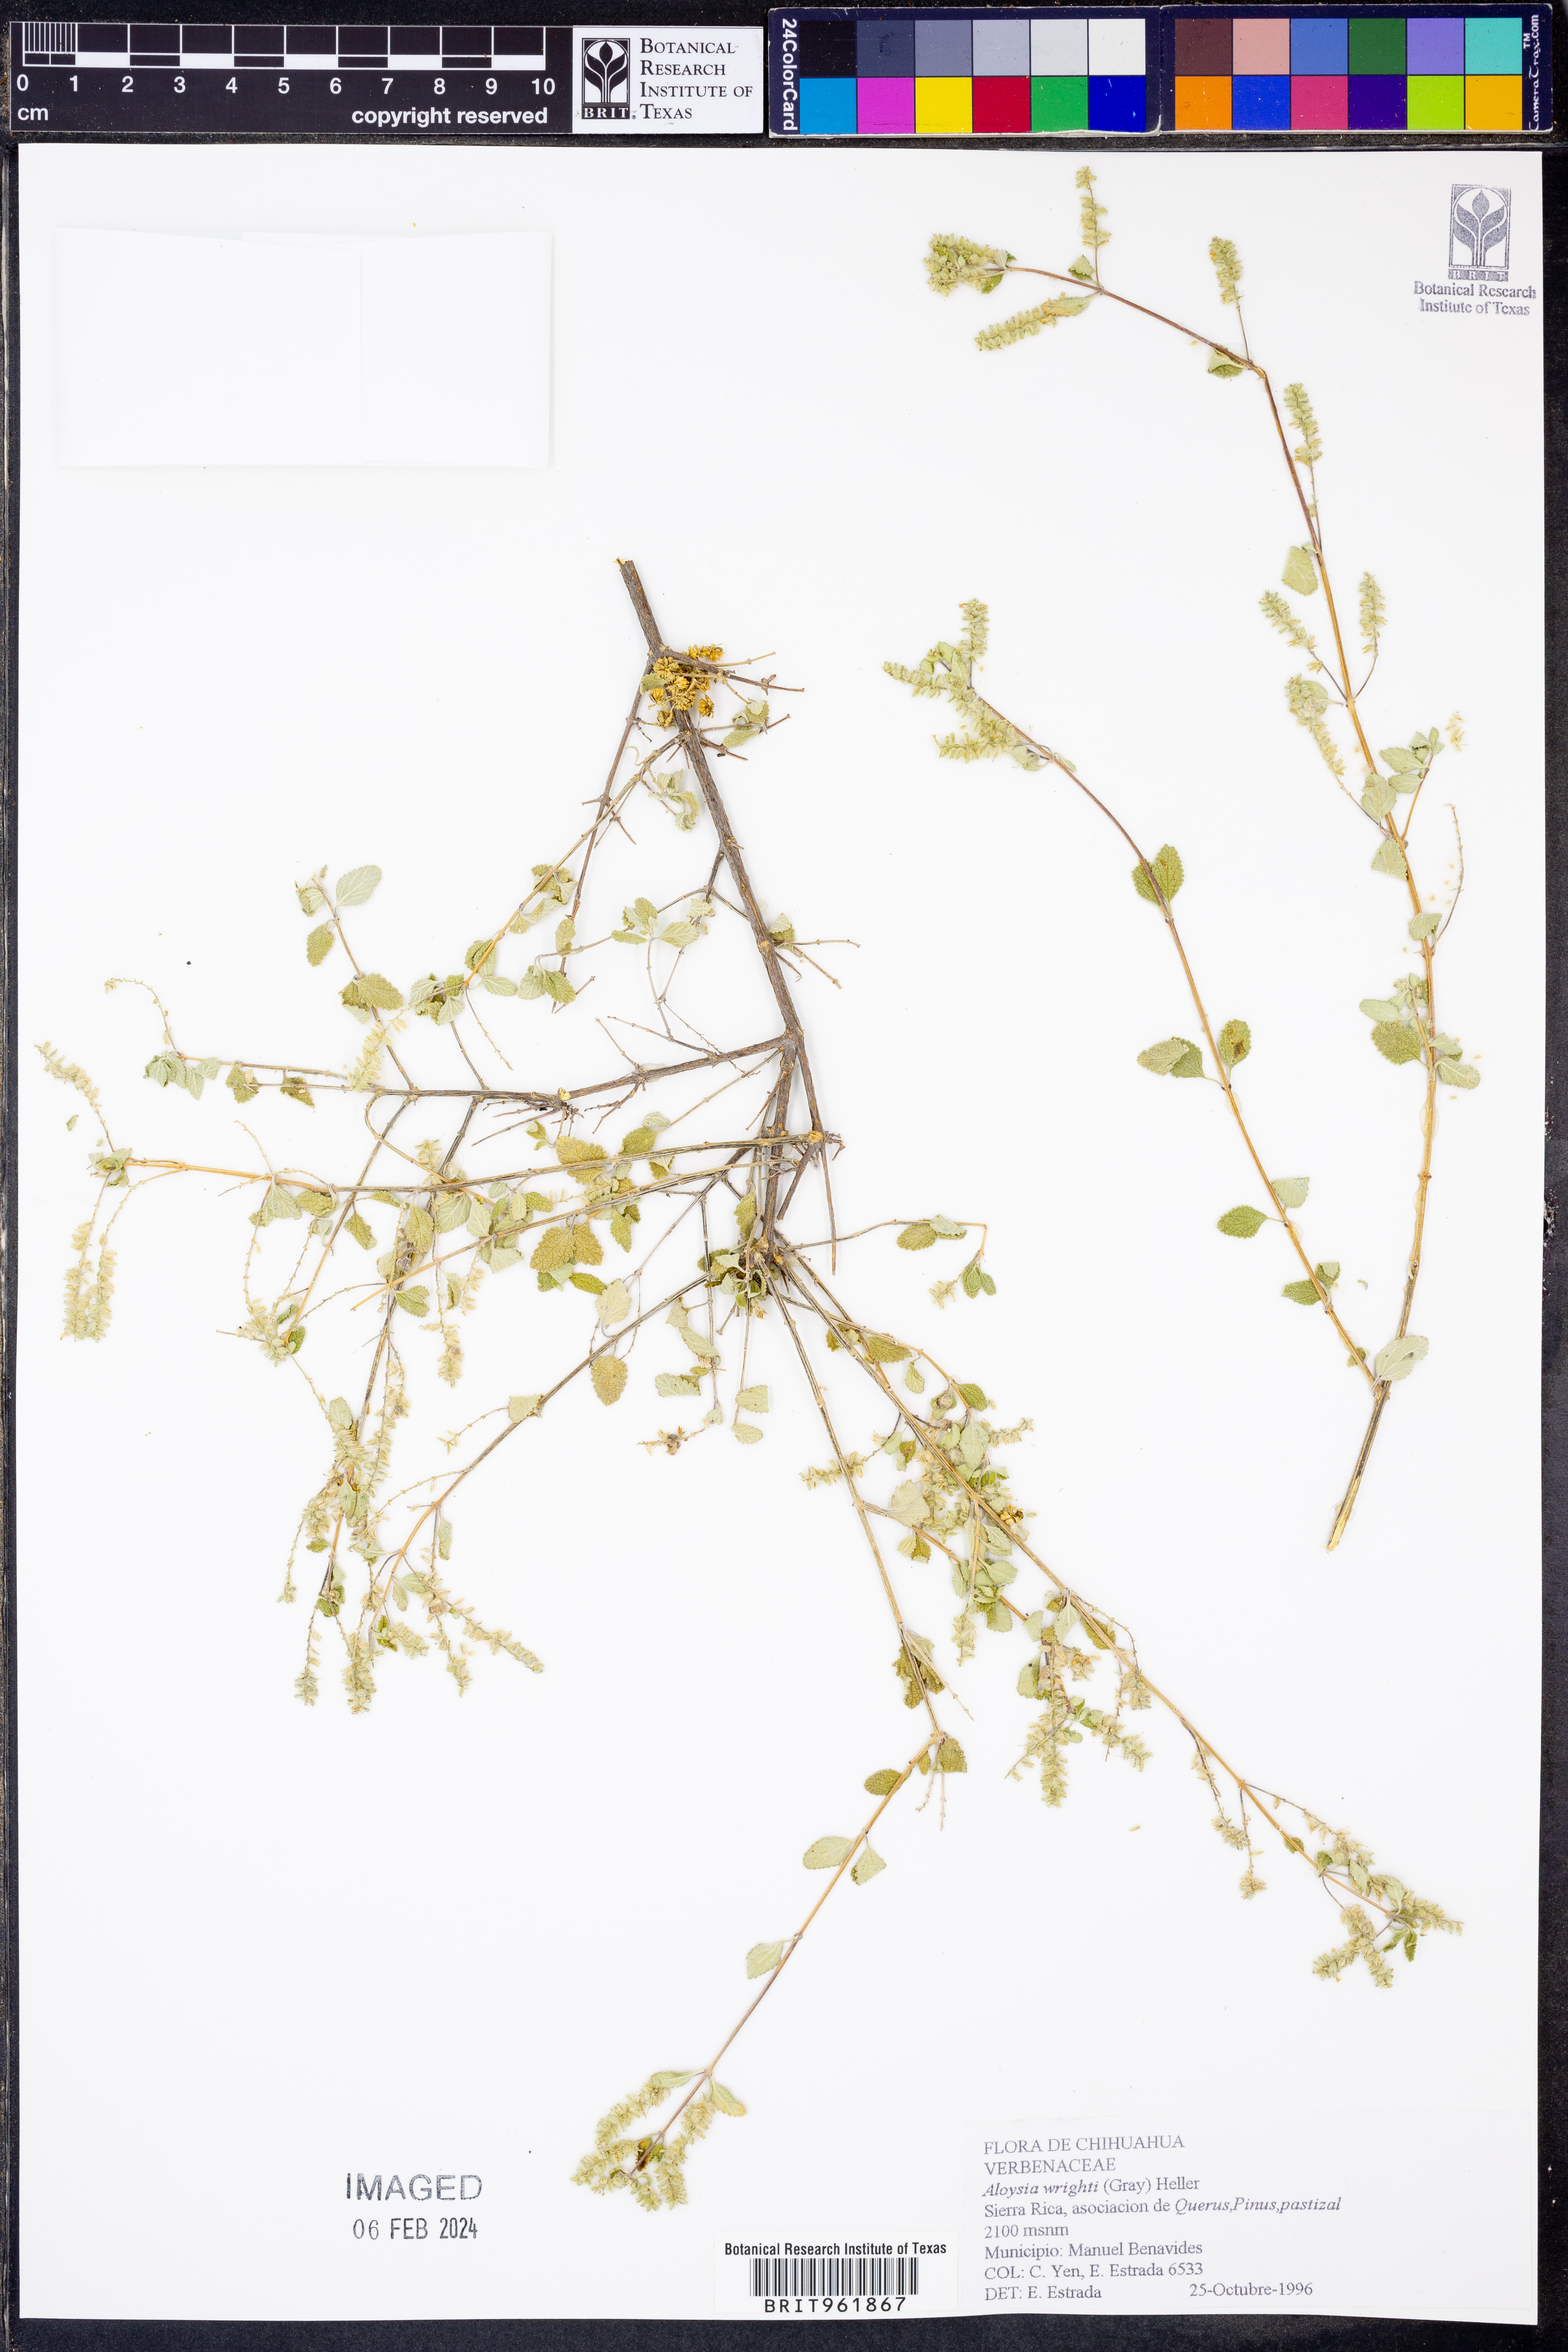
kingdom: Plantae
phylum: Tracheophyta
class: Magnoliopsida
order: Lamiales
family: Verbenaceae
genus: Aloysia
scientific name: Aloysia wrightii
